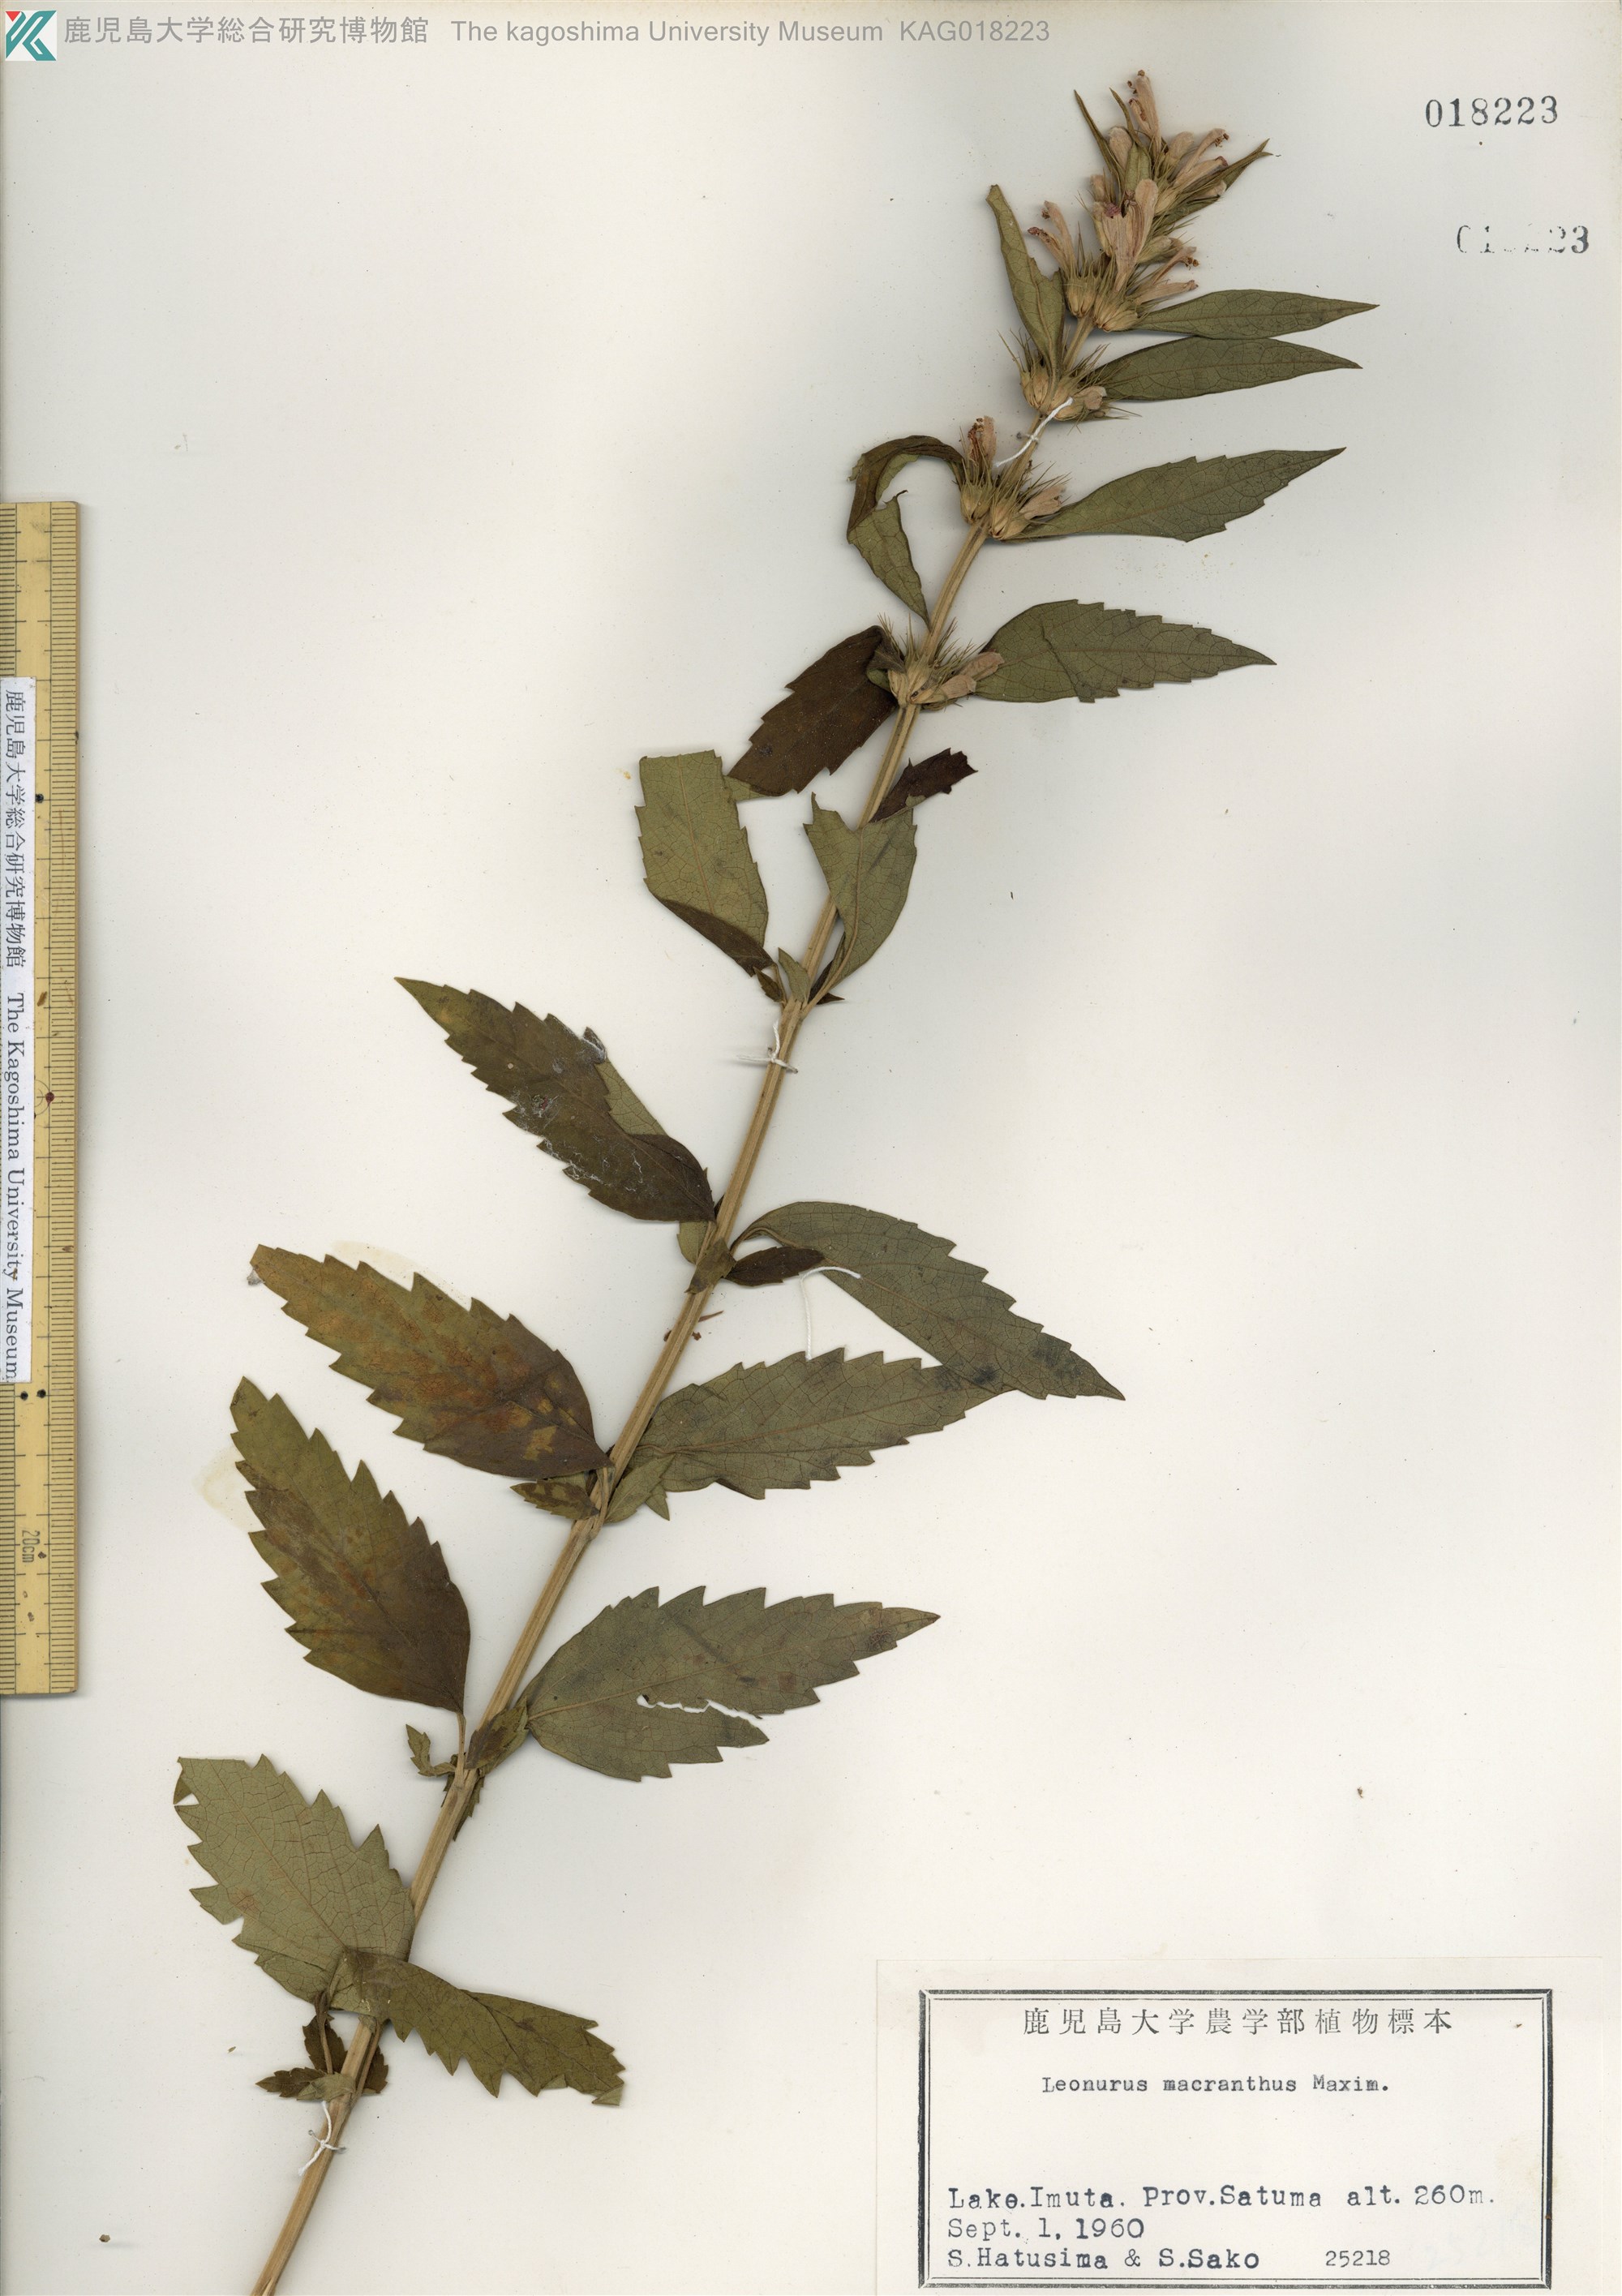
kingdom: Plantae
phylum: Tracheophyta
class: Magnoliopsida
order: Lamiales
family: Lamiaceae
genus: Leonurus
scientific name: Leonurus macranthus
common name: キセワタ
